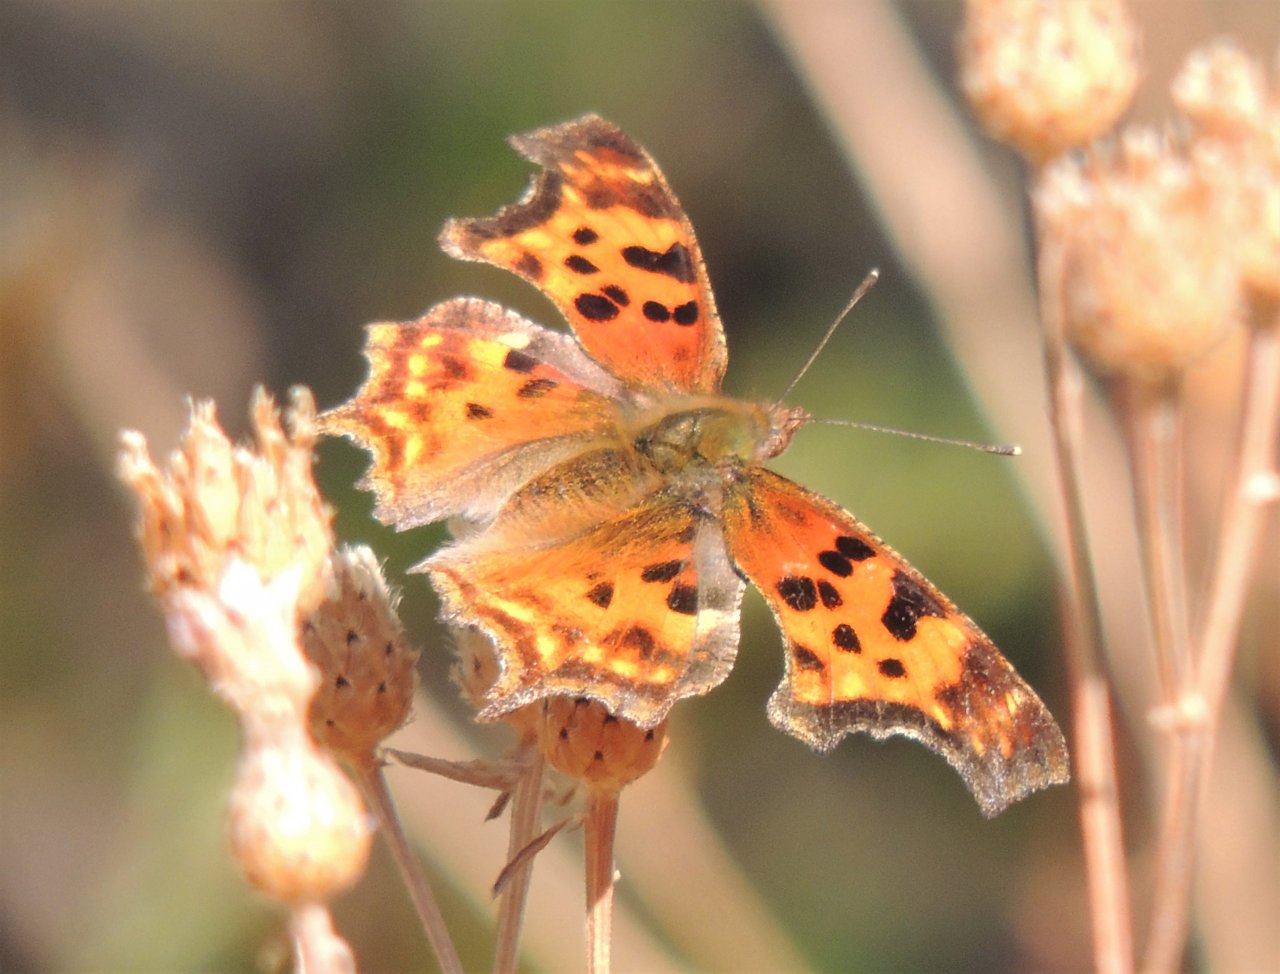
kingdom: Animalia
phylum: Arthropoda
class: Insecta
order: Lepidoptera
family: Nymphalidae
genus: Polygonia
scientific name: Polygonia satyrus
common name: Satyr Comma
